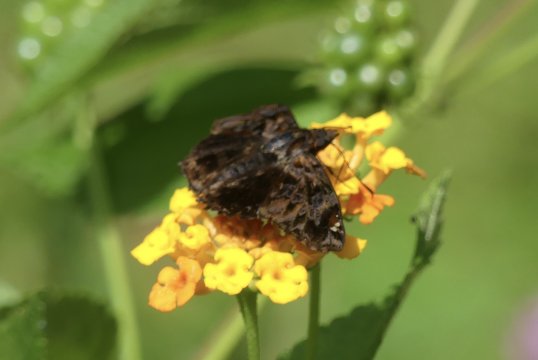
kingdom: Animalia
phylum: Arthropoda
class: Insecta
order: Lepidoptera
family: Hesperiidae
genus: Noctuana
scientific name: Noctuana stator
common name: Red-studded Skipper
